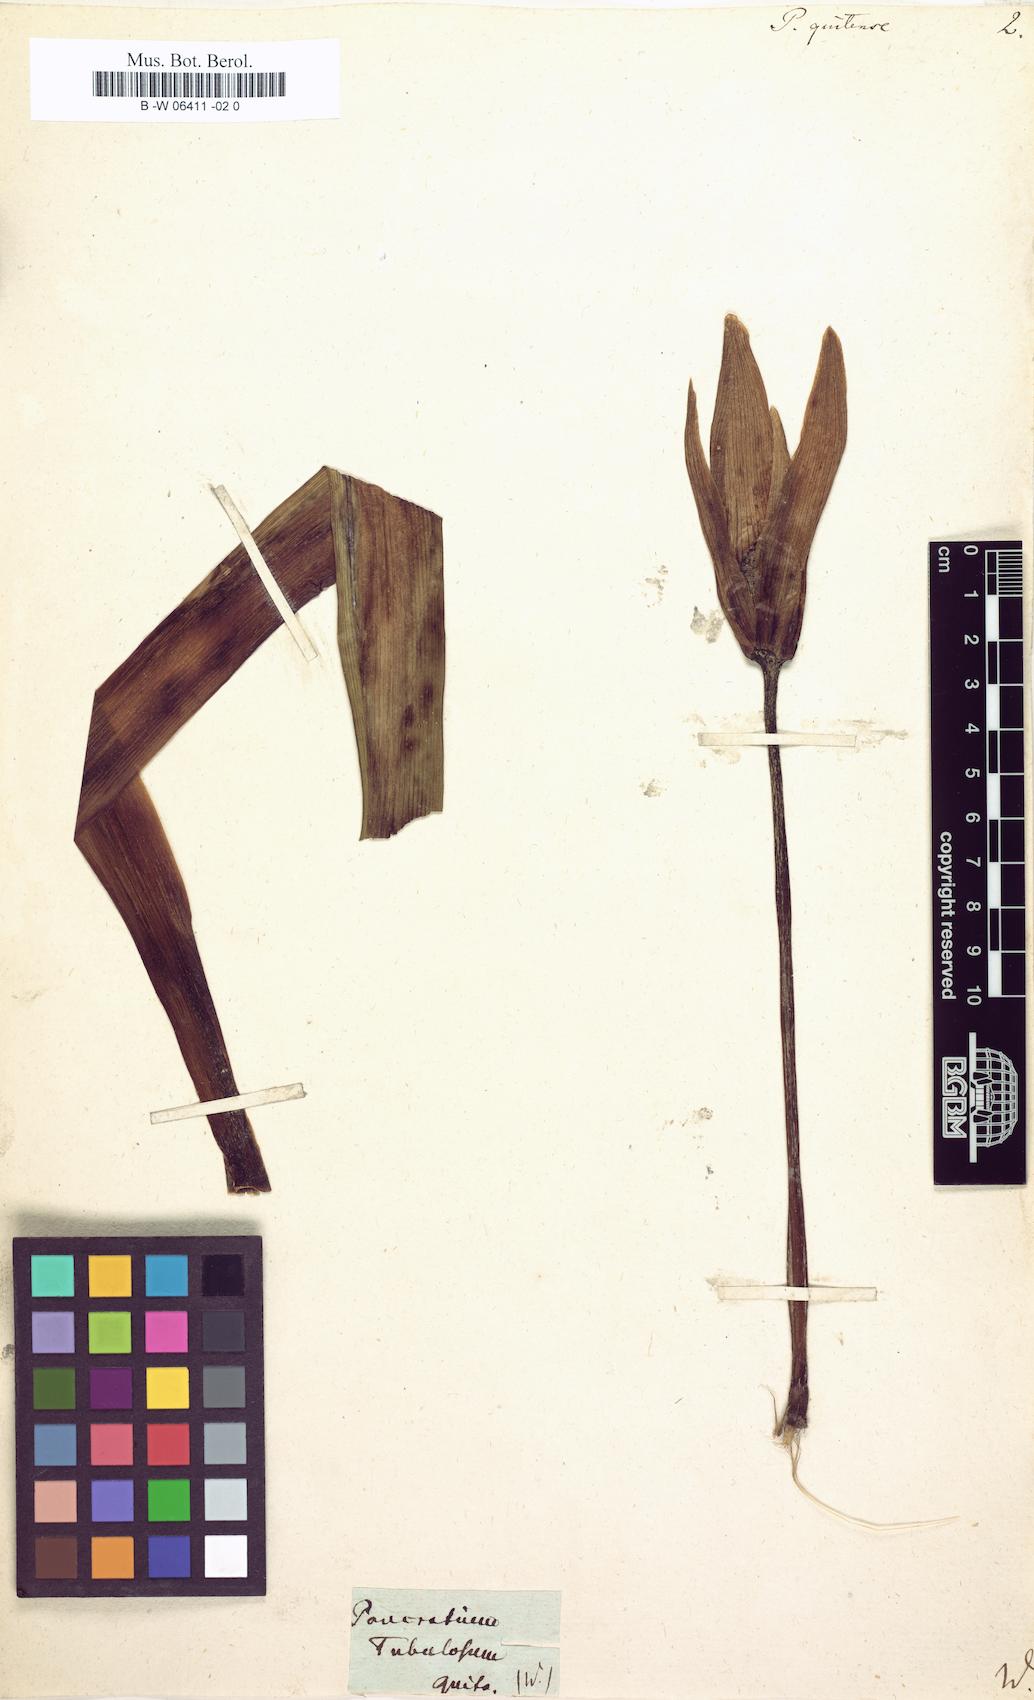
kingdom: Plantae
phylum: Tracheophyta
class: Liliopsida
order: Asparagales
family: Amaryllidaceae
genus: Clinanthus
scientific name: Clinanthus incarnatus
